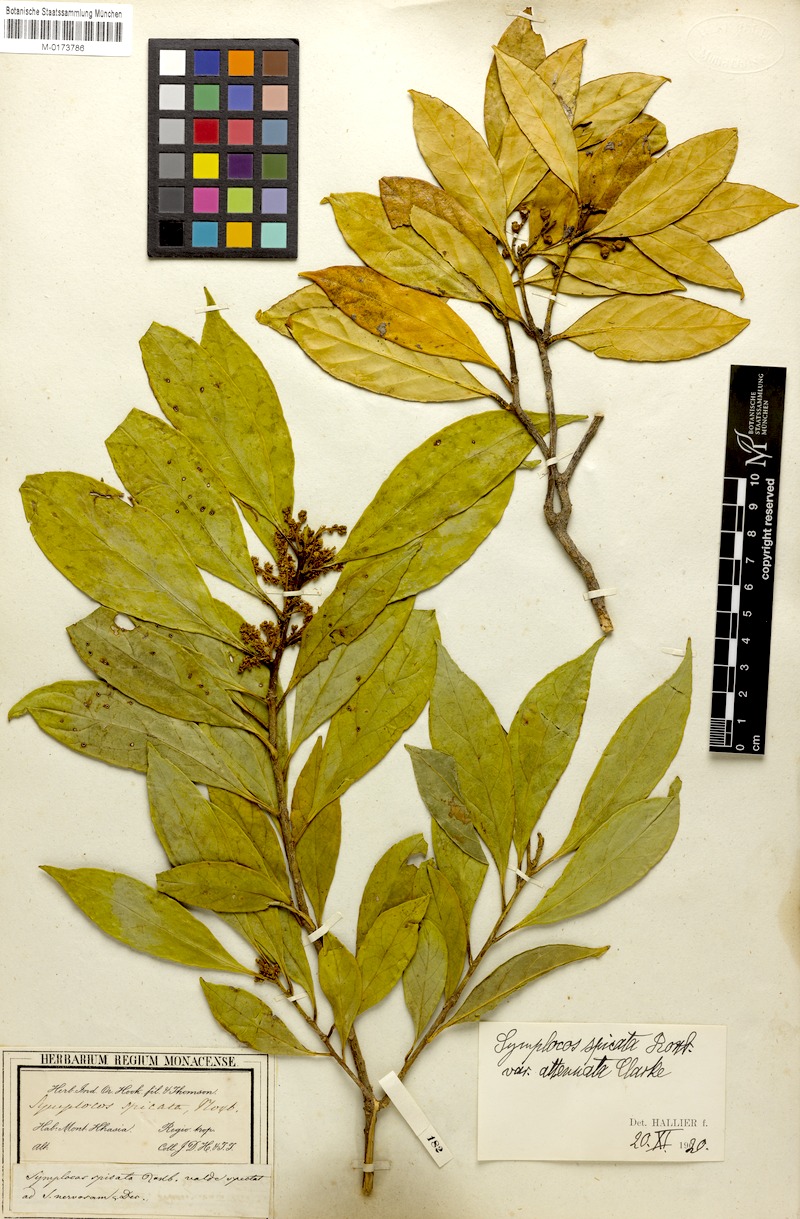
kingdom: Plantae
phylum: Tracheophyta
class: Magnoliopsida
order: Ericales
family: Symplocaceae
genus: Symplocos
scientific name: Symplocos acuminata
